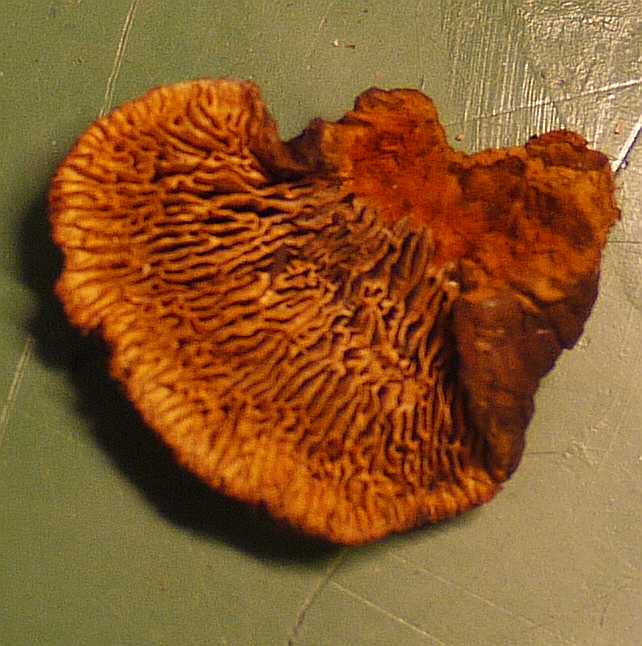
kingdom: Fungi
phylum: Basidiomycota
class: Agaricomycetes
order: Gloeophyllales
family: Gloeophyllaceae
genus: Gloeophyllum
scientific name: Gloeophyllum sepiarium
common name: fyrre-korkhat
